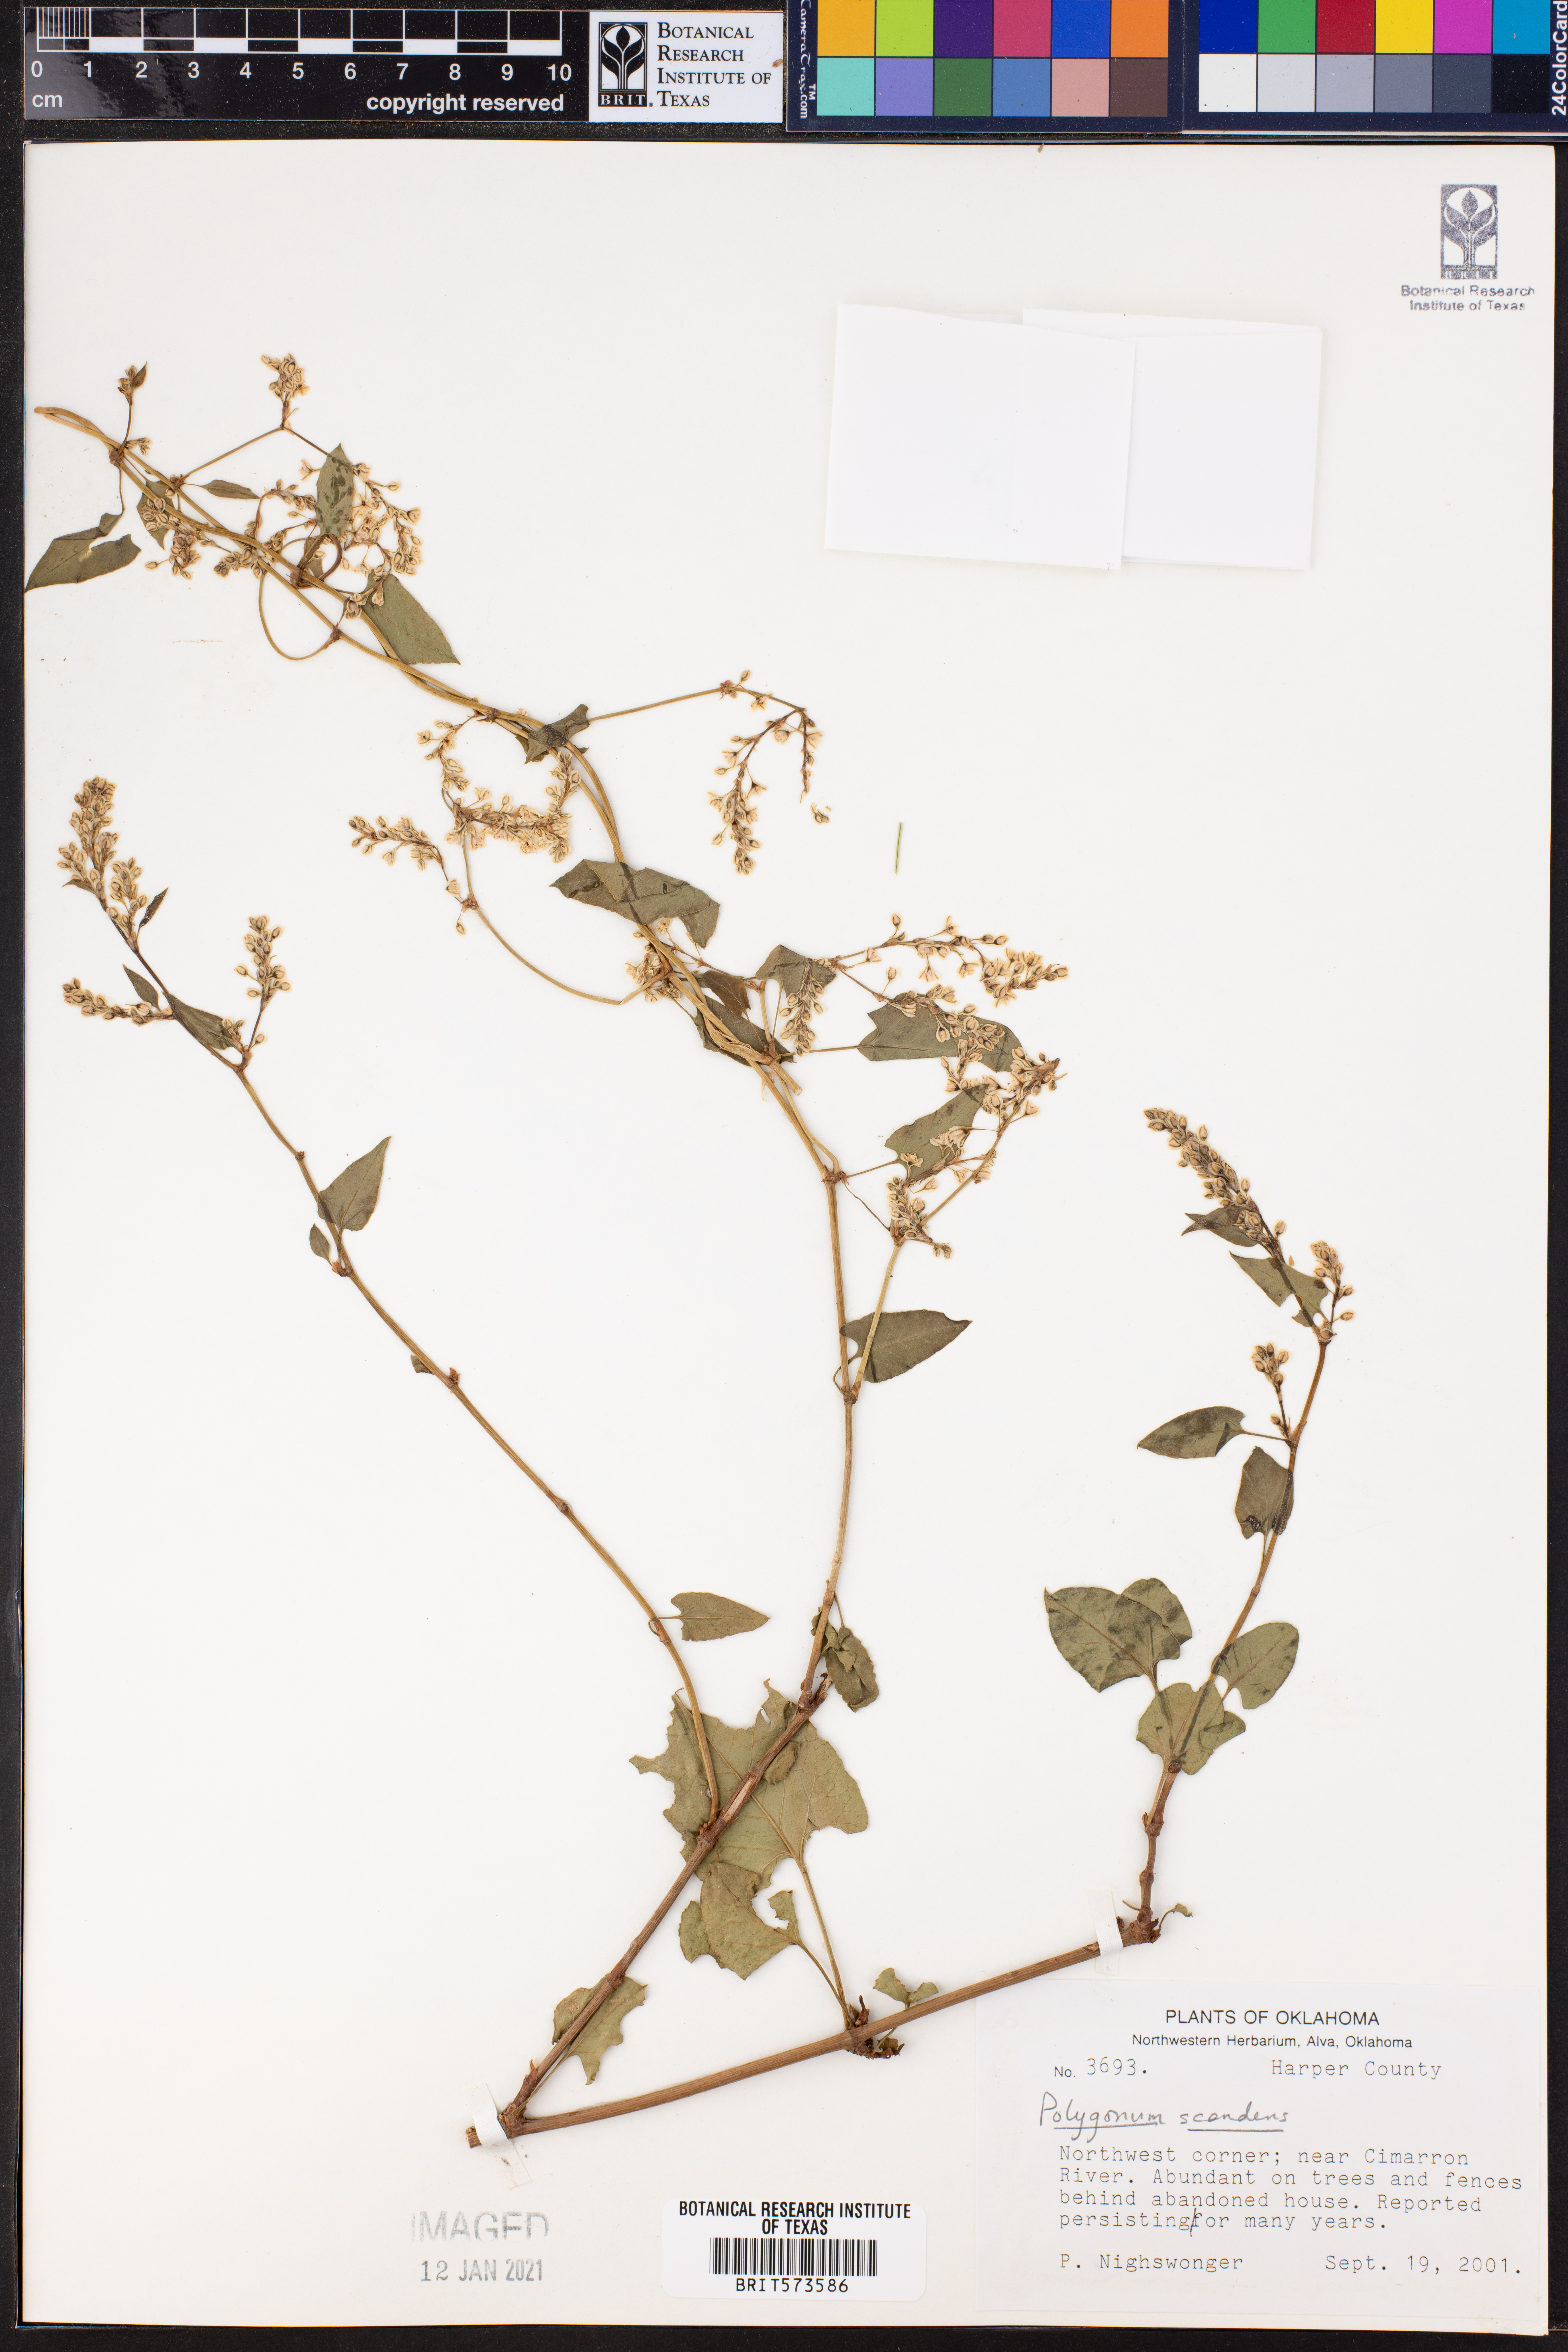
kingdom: Plantae
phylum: Tracheophyta
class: Magnoliopsida
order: Caryophyllales
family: Polygonaceae
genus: Fallopia
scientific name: Fallopia scandens
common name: Climbing false buckwheat
